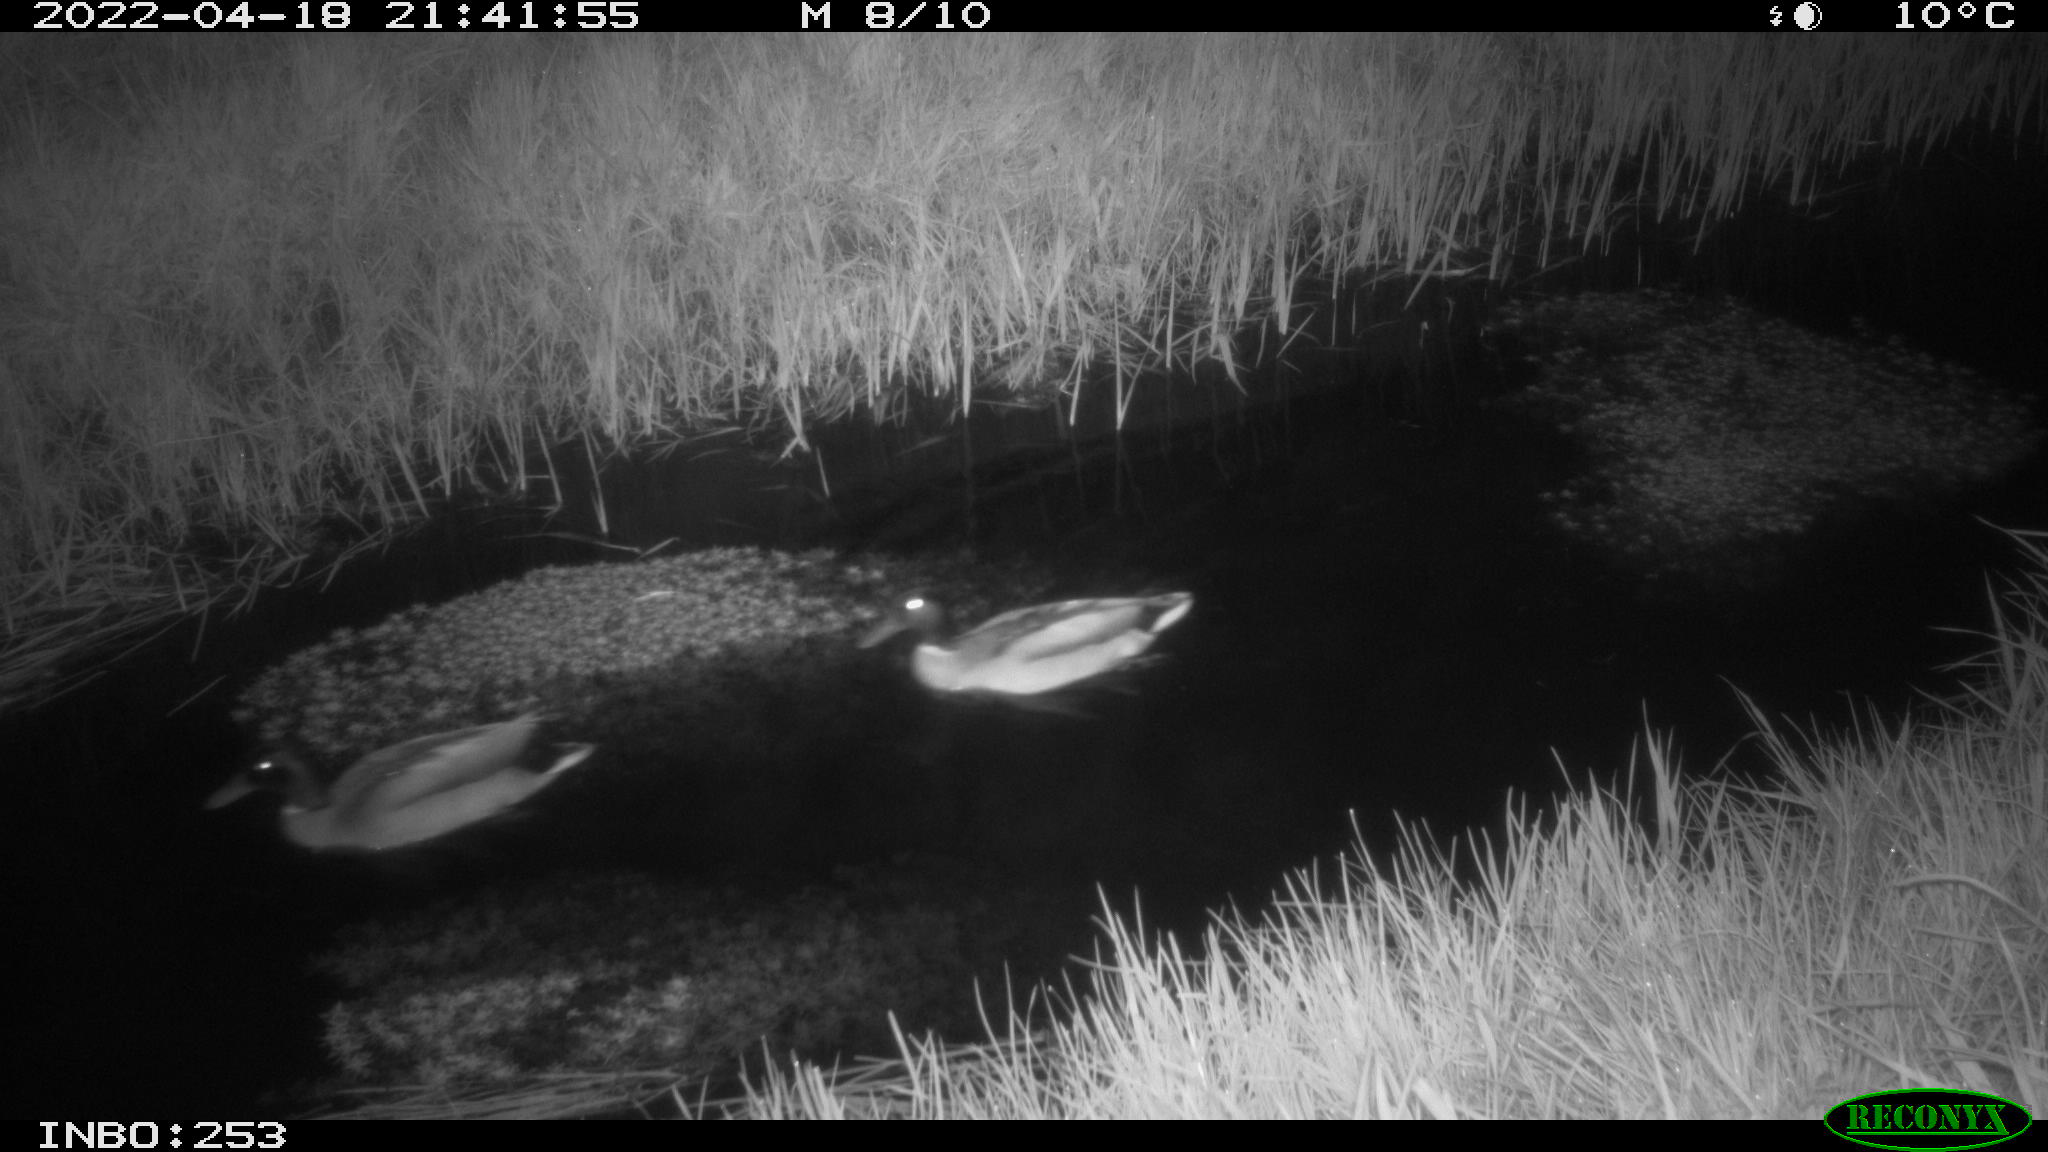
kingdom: Animalia
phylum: Chordata
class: Aves
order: Anseriformes
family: Anatidae
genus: Anas
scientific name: Anas platyrhynchos
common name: Mallard
